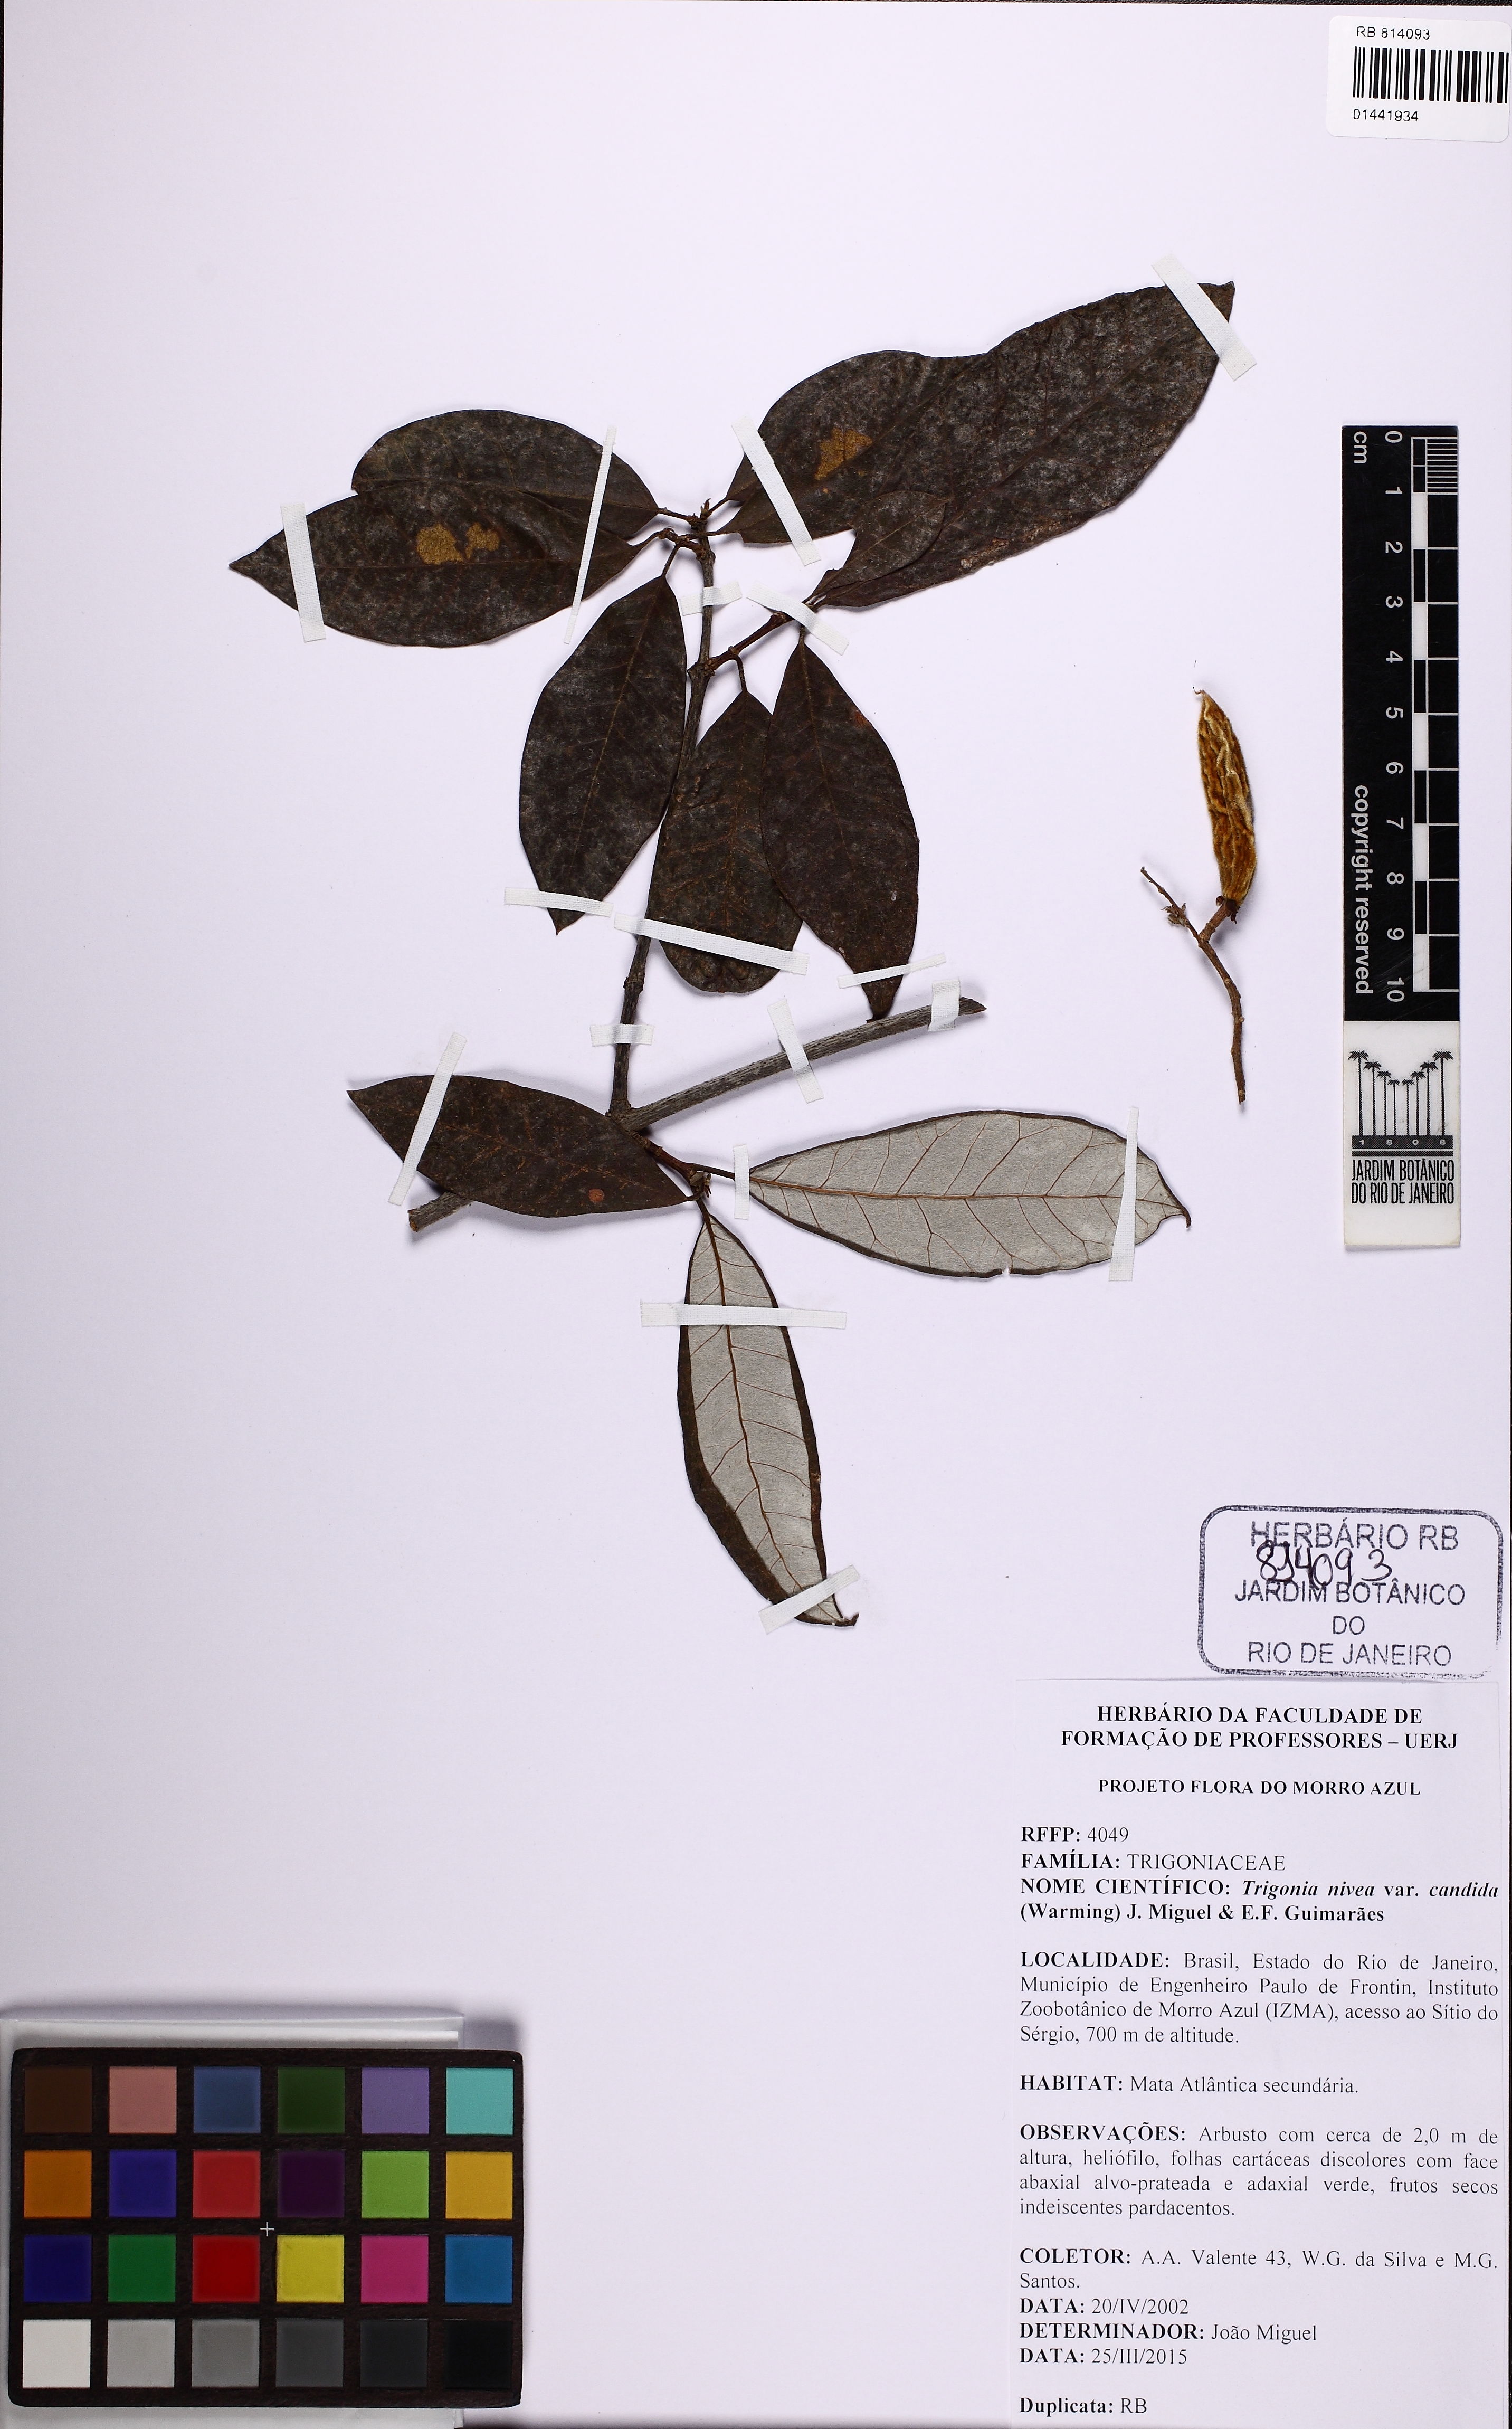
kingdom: Plantae
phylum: Tracheophyta
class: Magnoliopsida
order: Malpighiales
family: Trigoniaceae
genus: Trigonia
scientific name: Trigonia nivea
